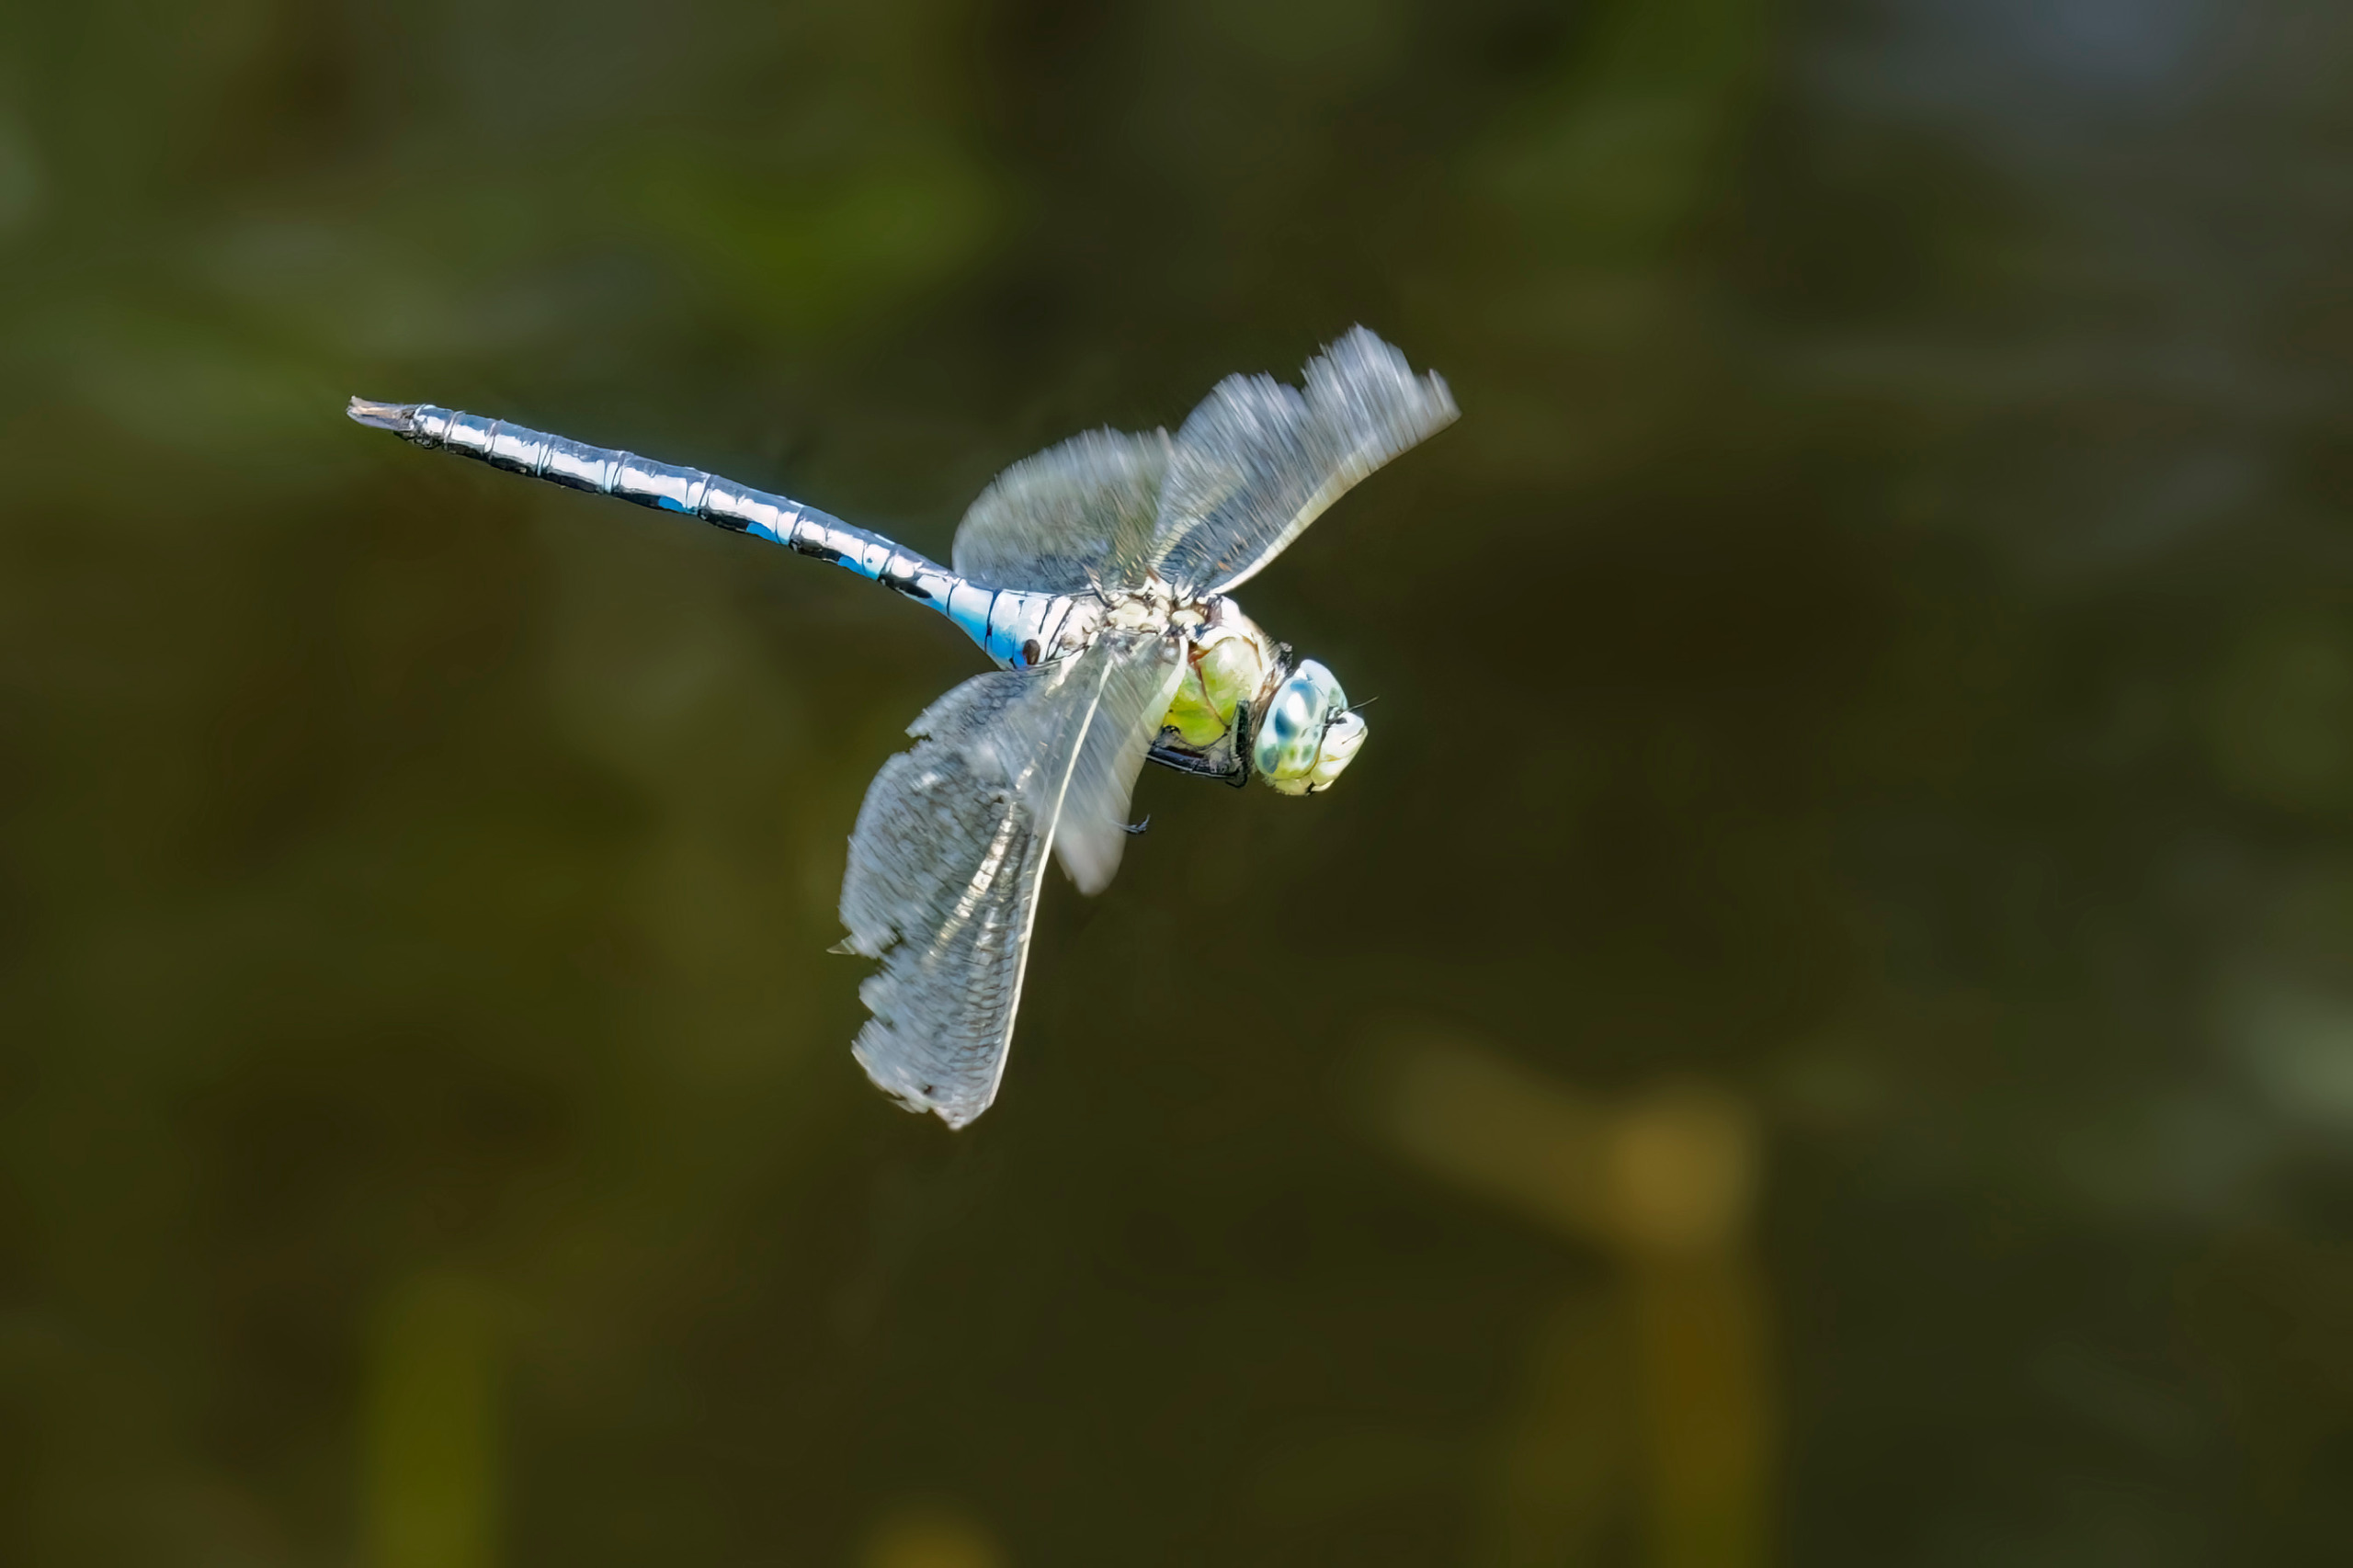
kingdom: Animalia
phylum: Arthropoda
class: Insecta
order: Odonata
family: Aeshnidae
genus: Anax
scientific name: Anax imperator
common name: Stor kejserguldsmed
